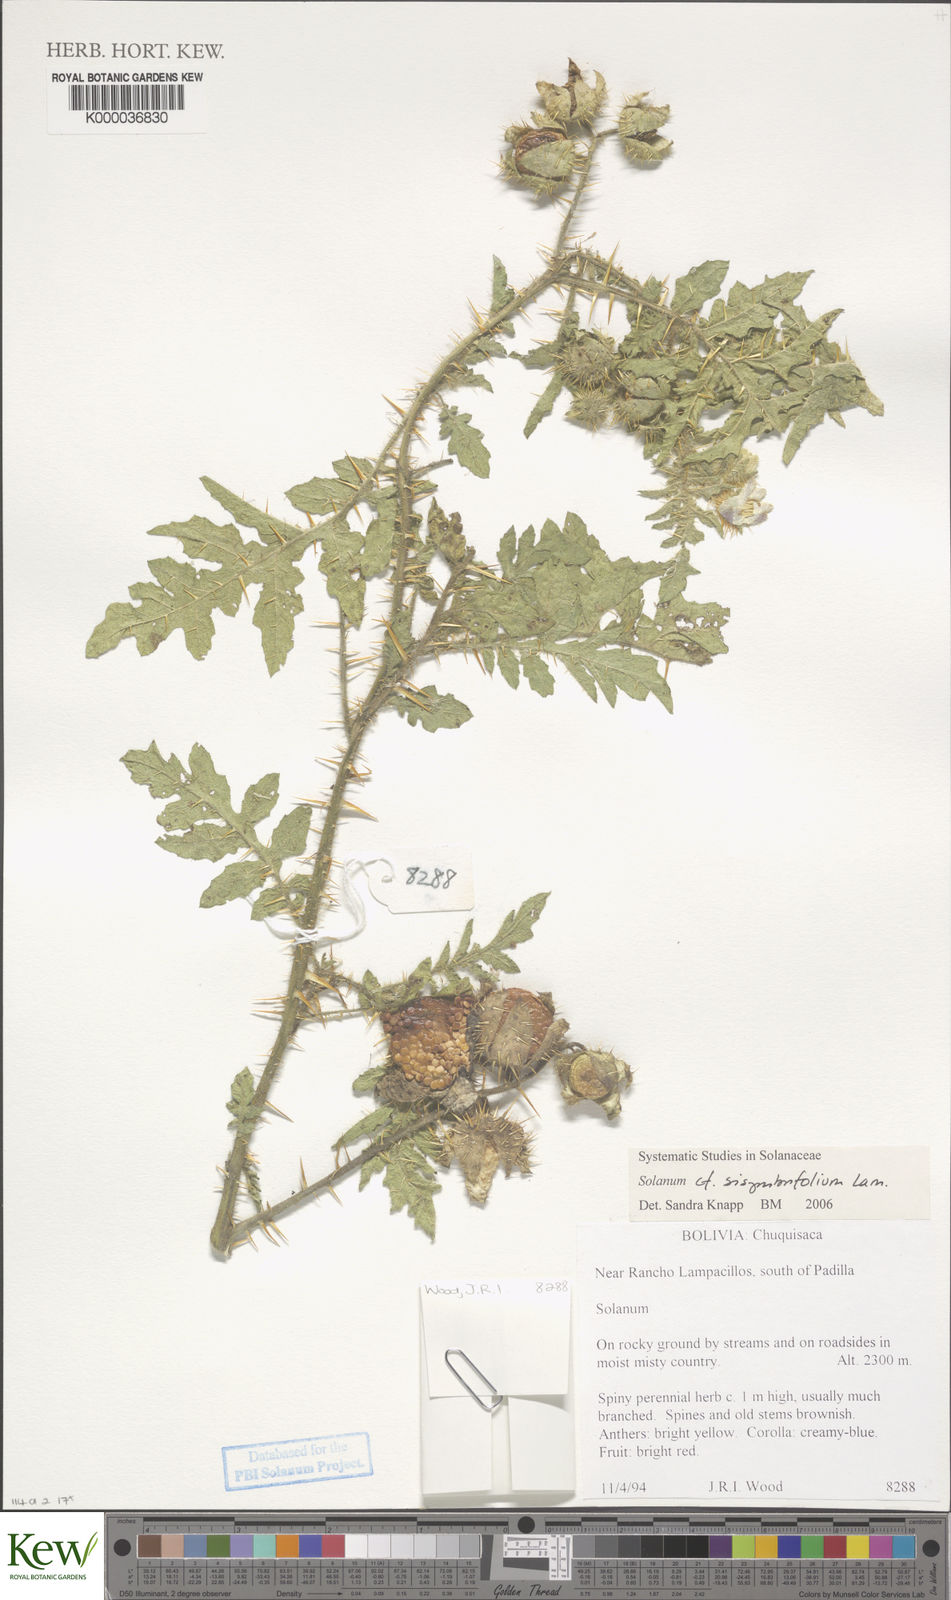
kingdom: Plantae
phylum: Tracheophyta
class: Magnoliopsida
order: Solanales
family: Solanaceae
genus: Solanum
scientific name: Solanum sisymbriifolium
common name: Red buffalo-bur
